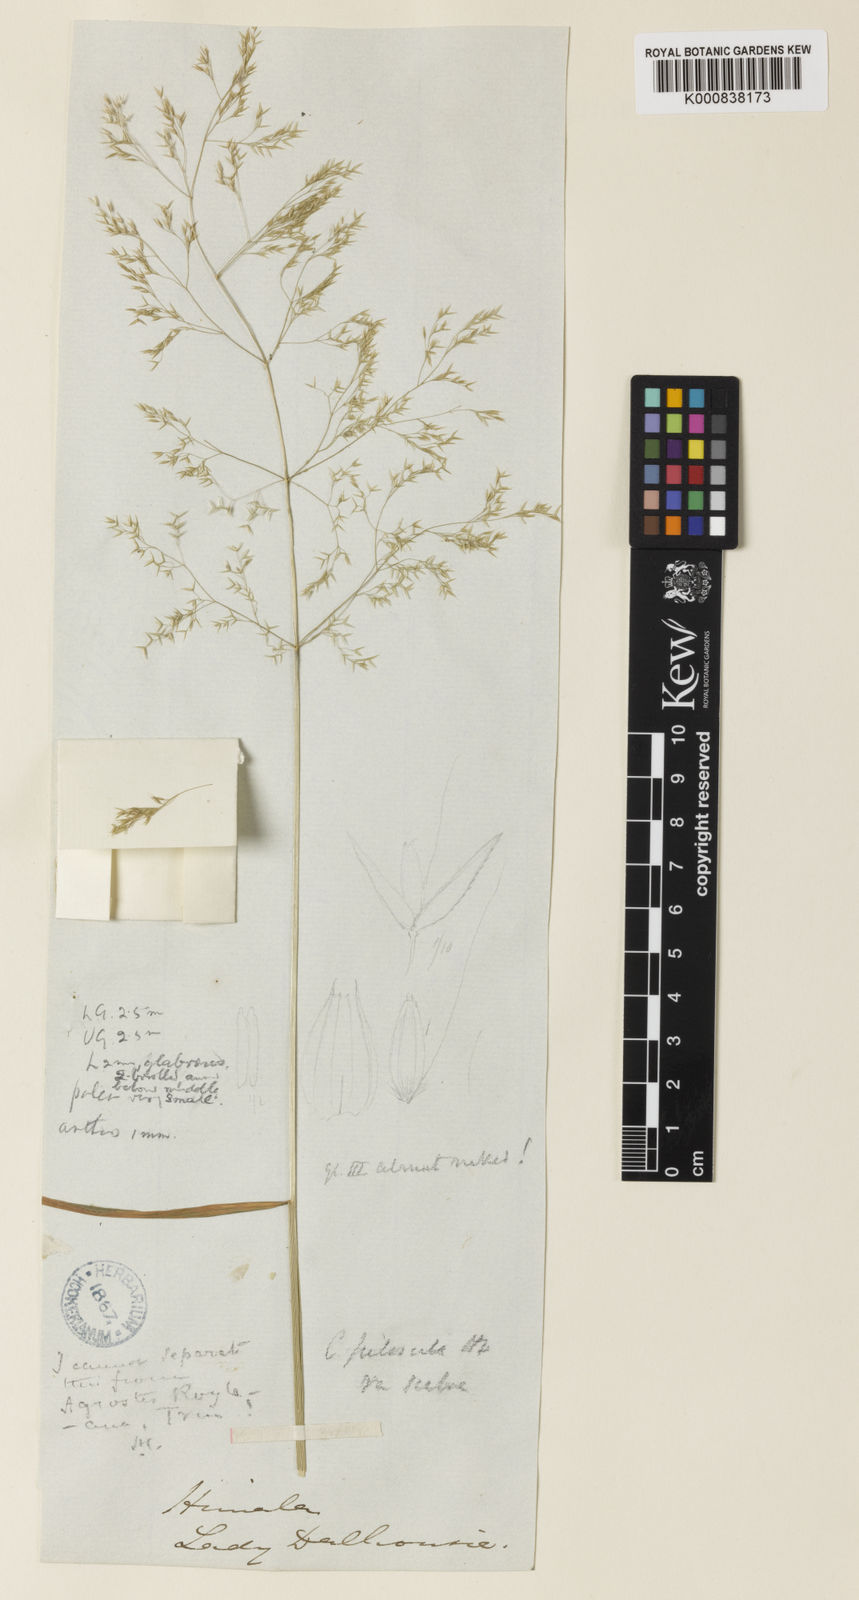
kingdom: Plantae
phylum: Tracheophyta
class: Liliopsida
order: Poales
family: Poaceae
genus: Digitaria
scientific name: Digitaria stricta
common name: Crabgrass
